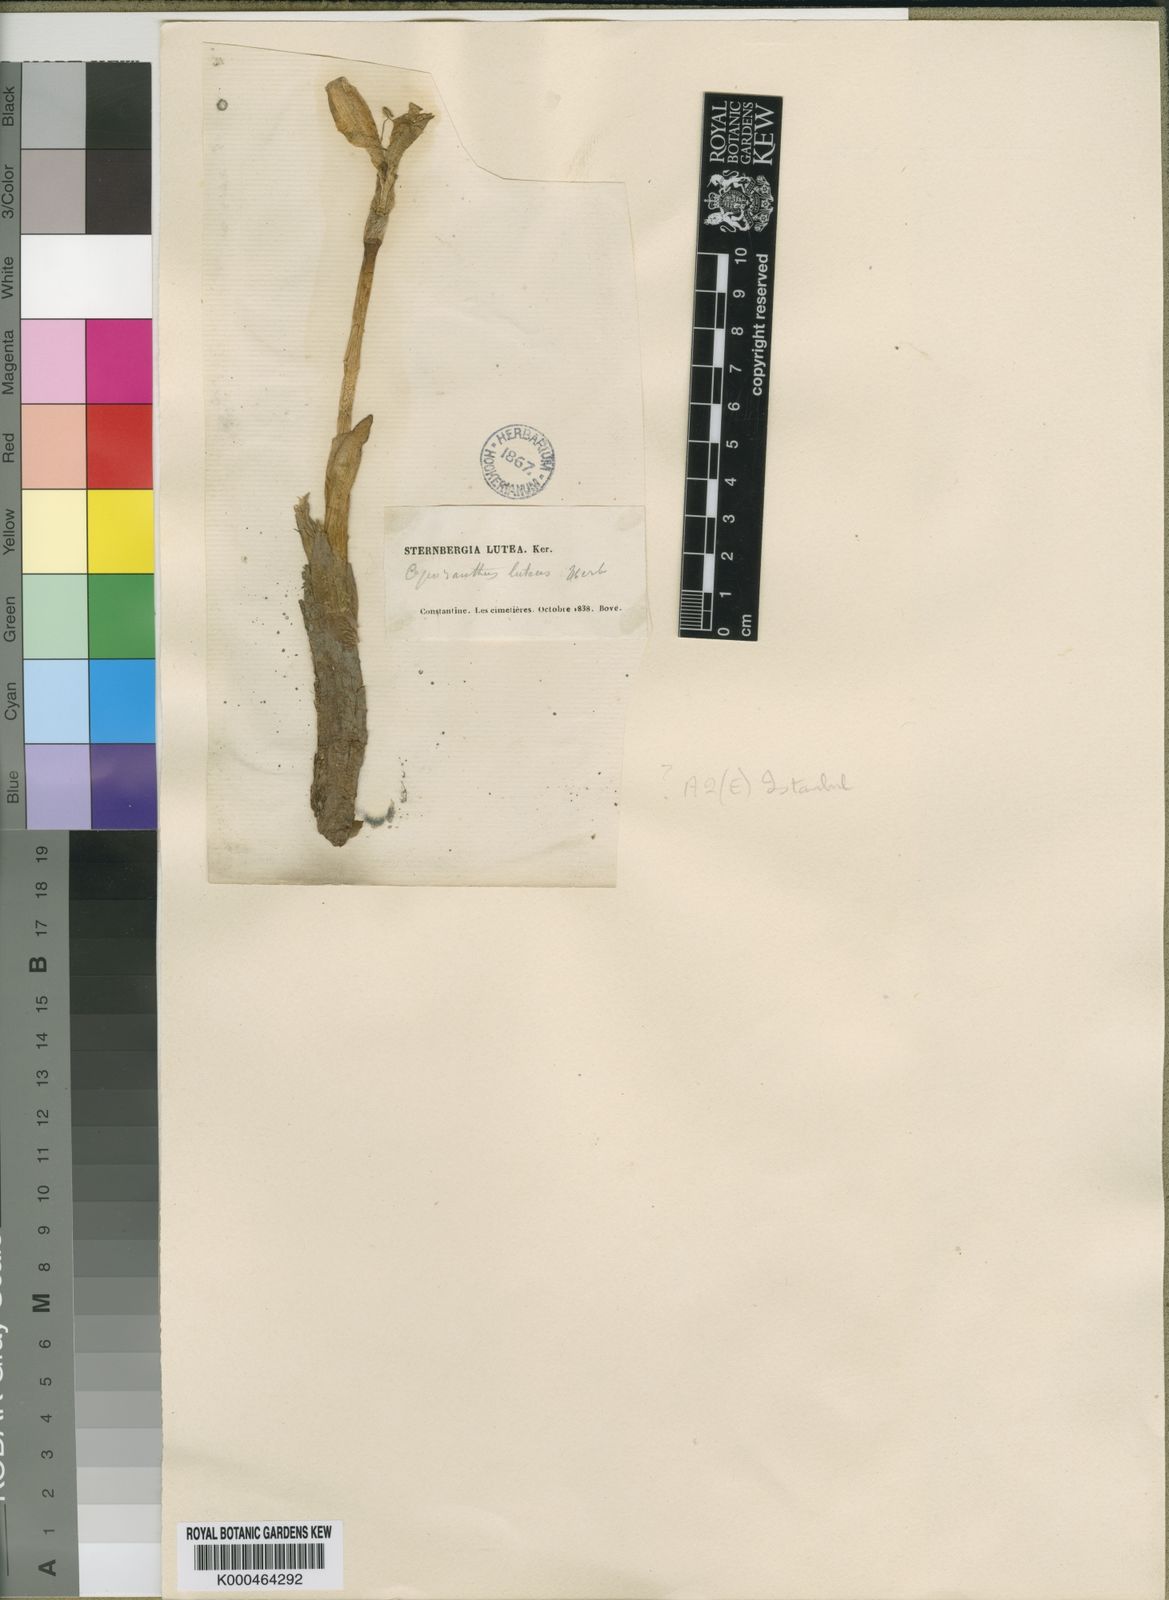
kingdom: Plantae
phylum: Tracheophyta
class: Liliopsida
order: Asparagales
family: Amaryllidaceae
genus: Sternbergia
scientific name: Sternbergia
